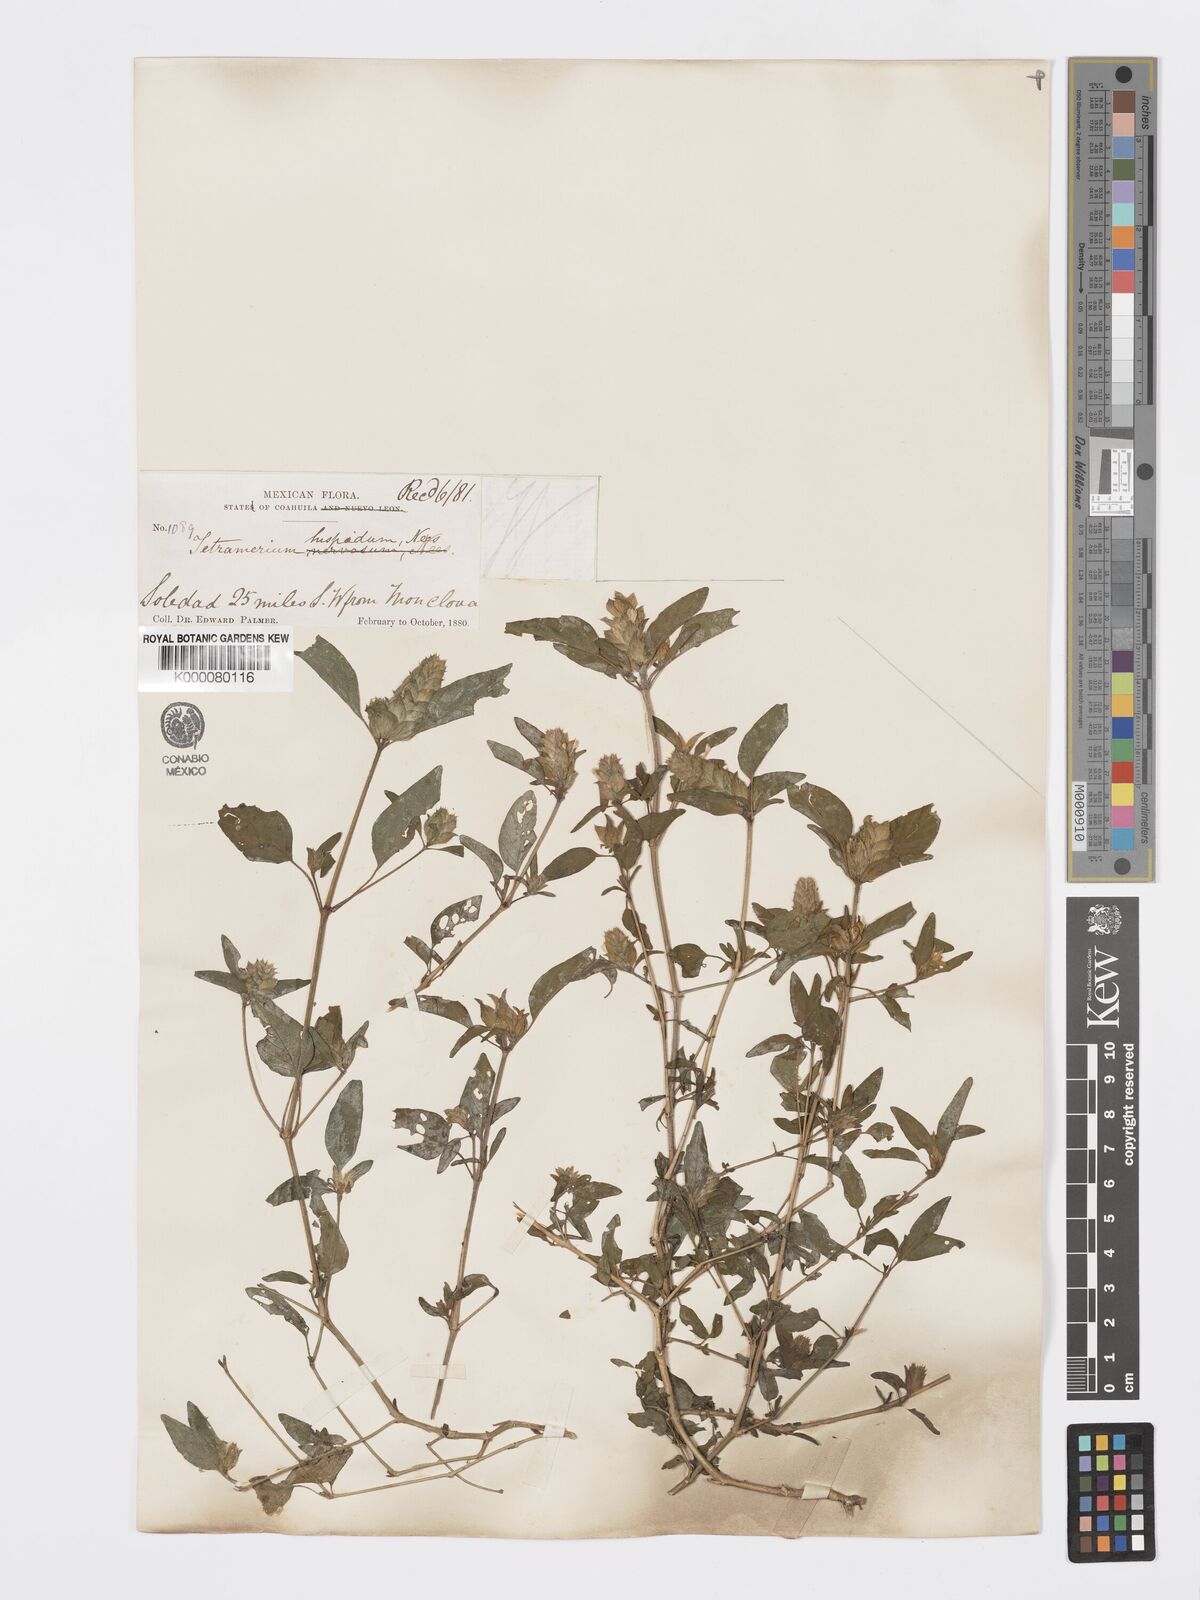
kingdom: Plantae
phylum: Tracheophyta
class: Magnoliopsida
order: Lamiales
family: Acanthaceae
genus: Tetramerium
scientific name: Tetramerium nervosum
